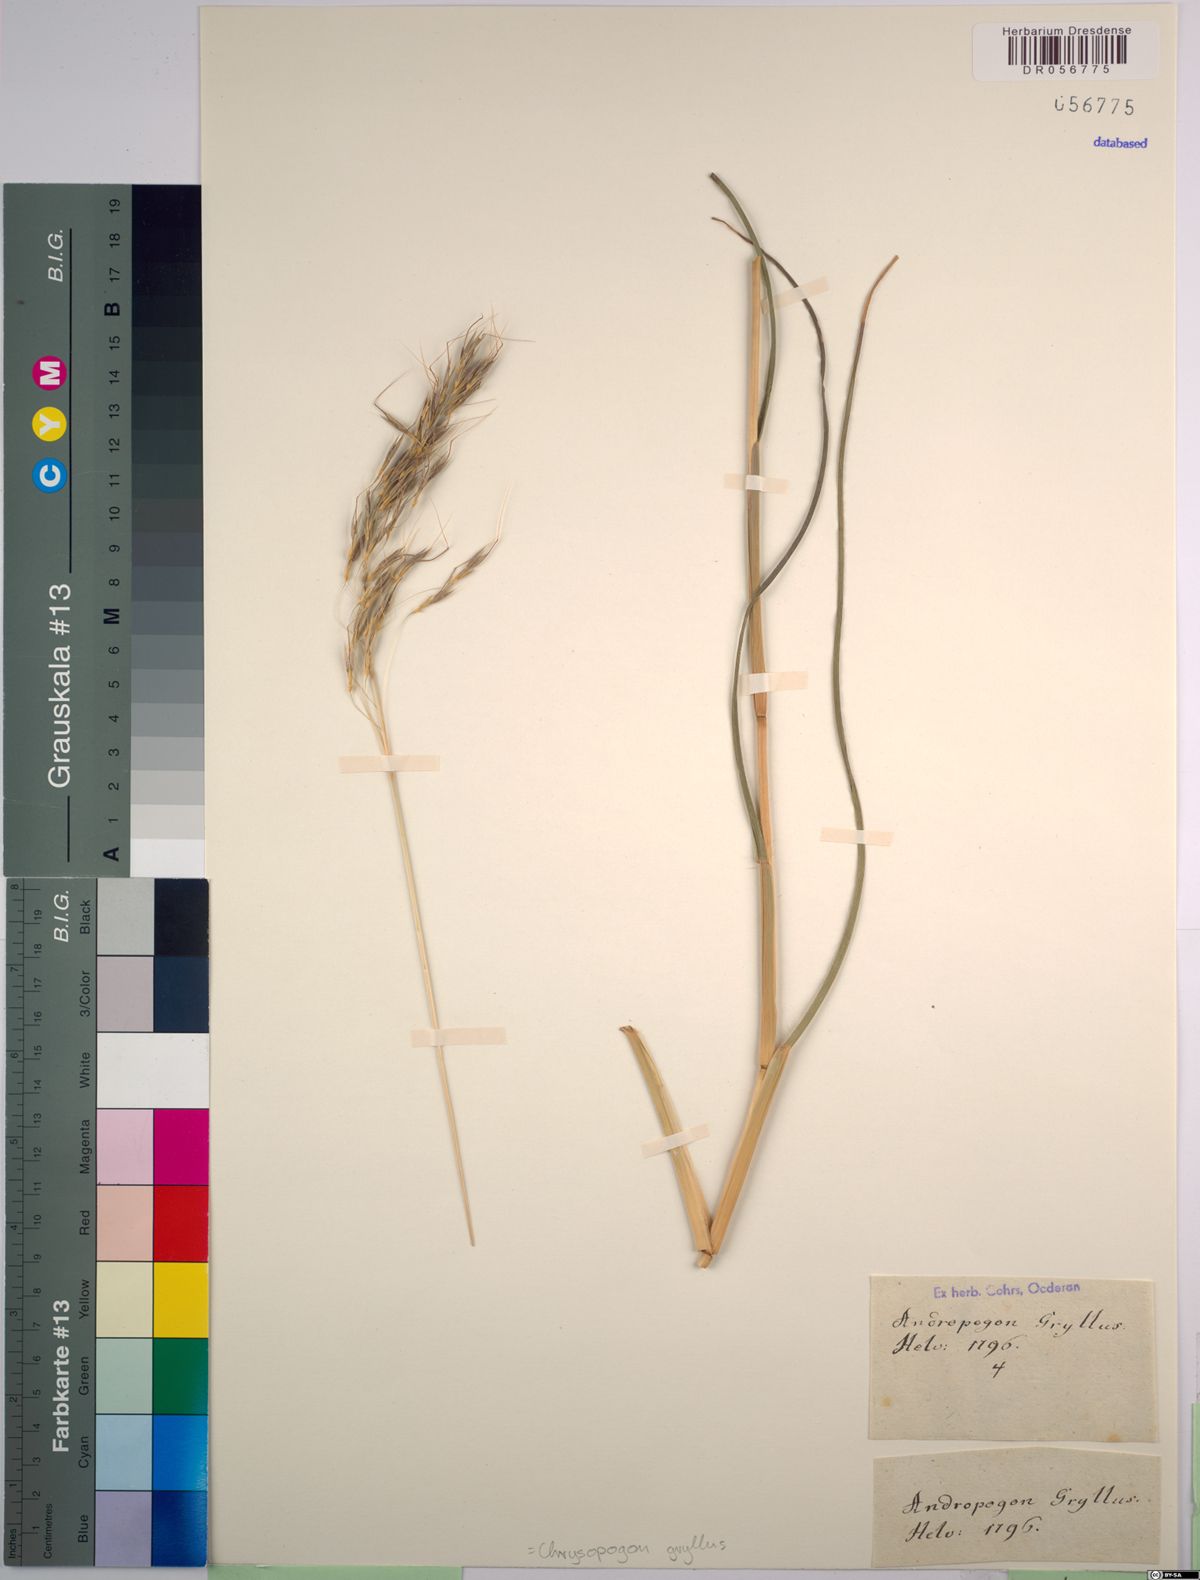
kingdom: Plantae
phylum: Tracheophyta
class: Liliopsida
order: Poales
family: Poaceae
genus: Chrysopogon
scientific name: Chrysopogon gryllus
